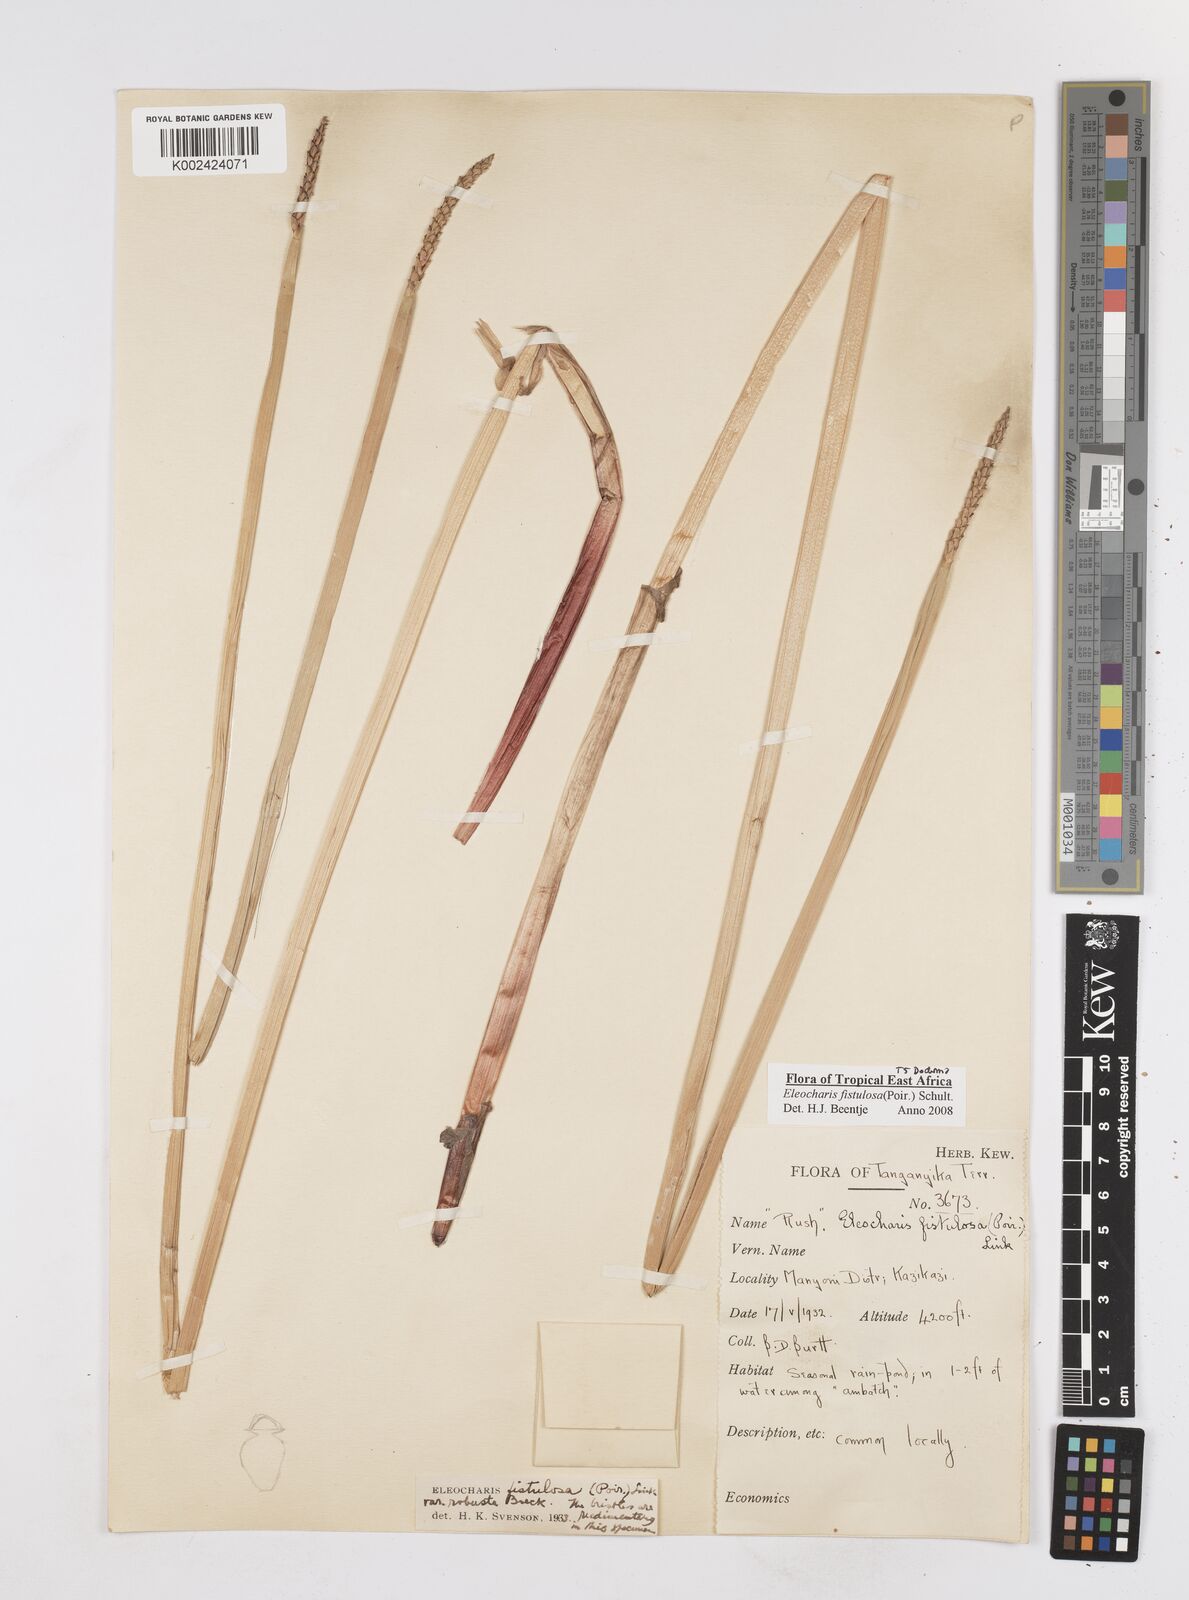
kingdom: Plantae
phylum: Tracheophyta
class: Liliopsida
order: Poales
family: Cyperaceae
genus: Eleocharis
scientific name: Eleocharis acutangula
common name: Acute spikerush
